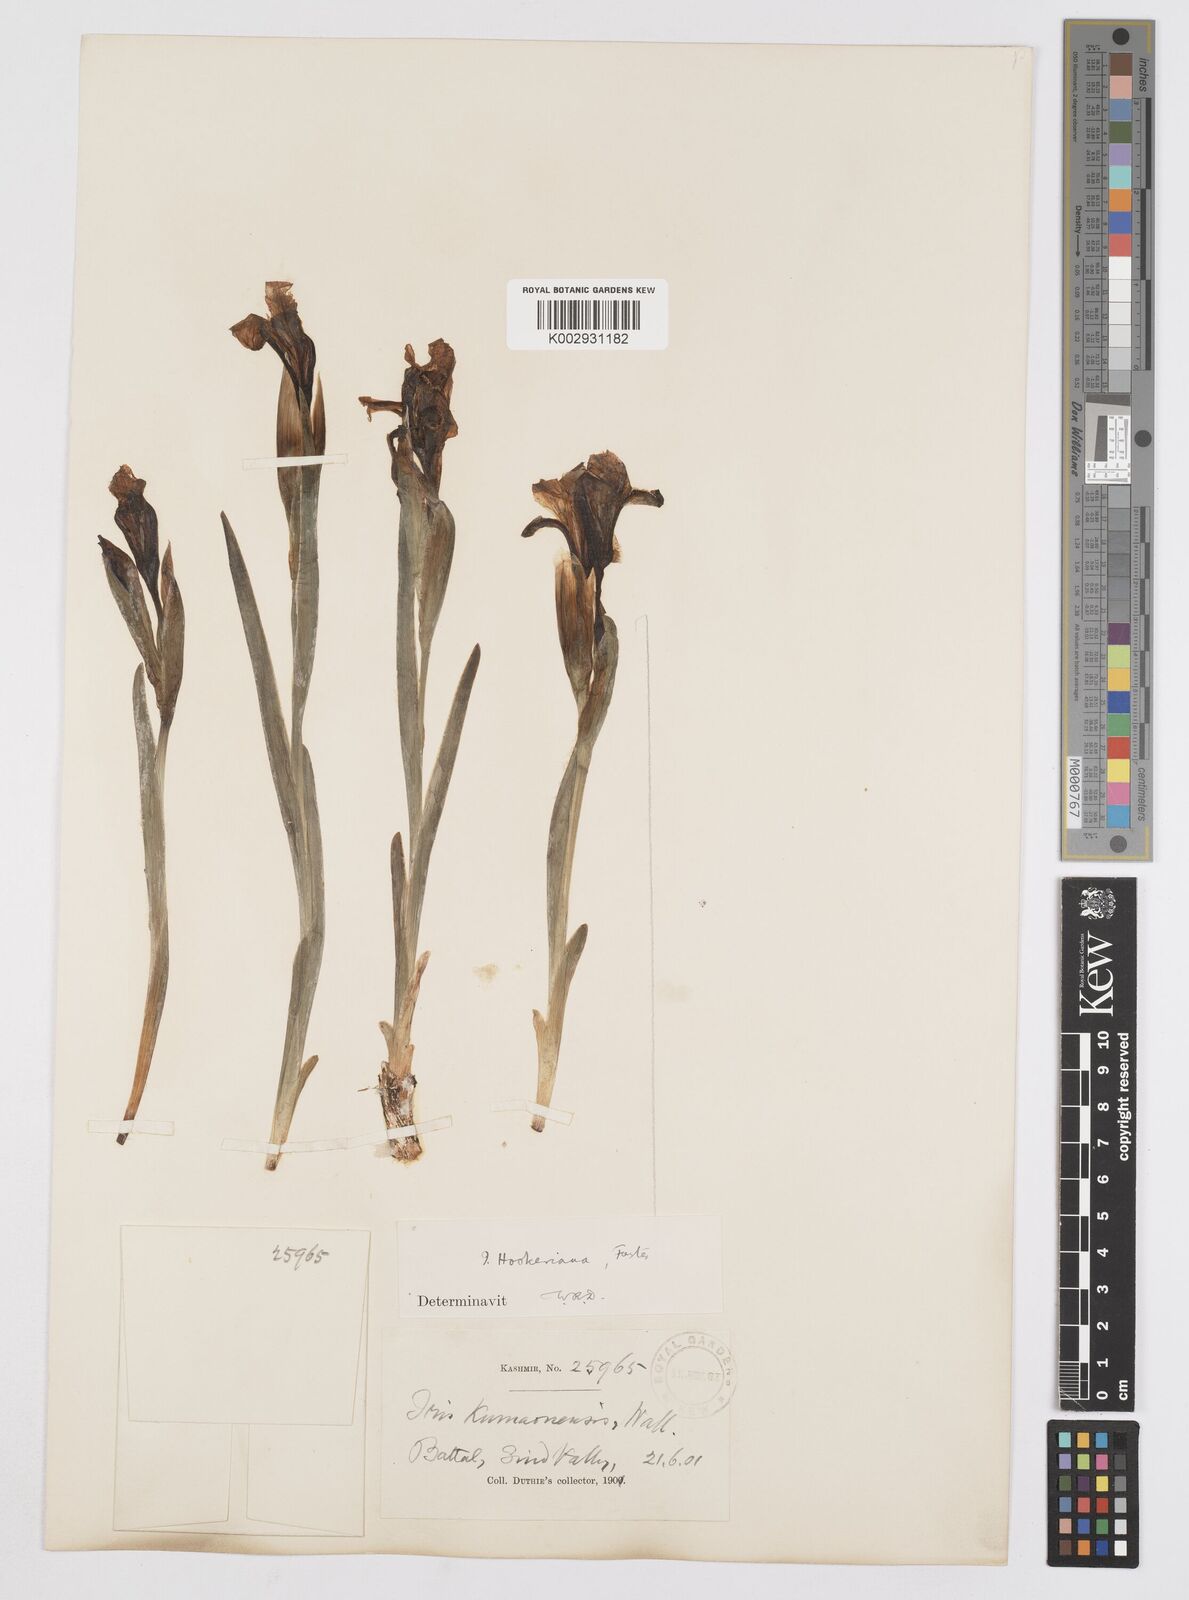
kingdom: Plantae
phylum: Tracheophyta
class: Liliopsida
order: Asparagales
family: Iridaceae
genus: Iris
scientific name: Iris hookeriana
